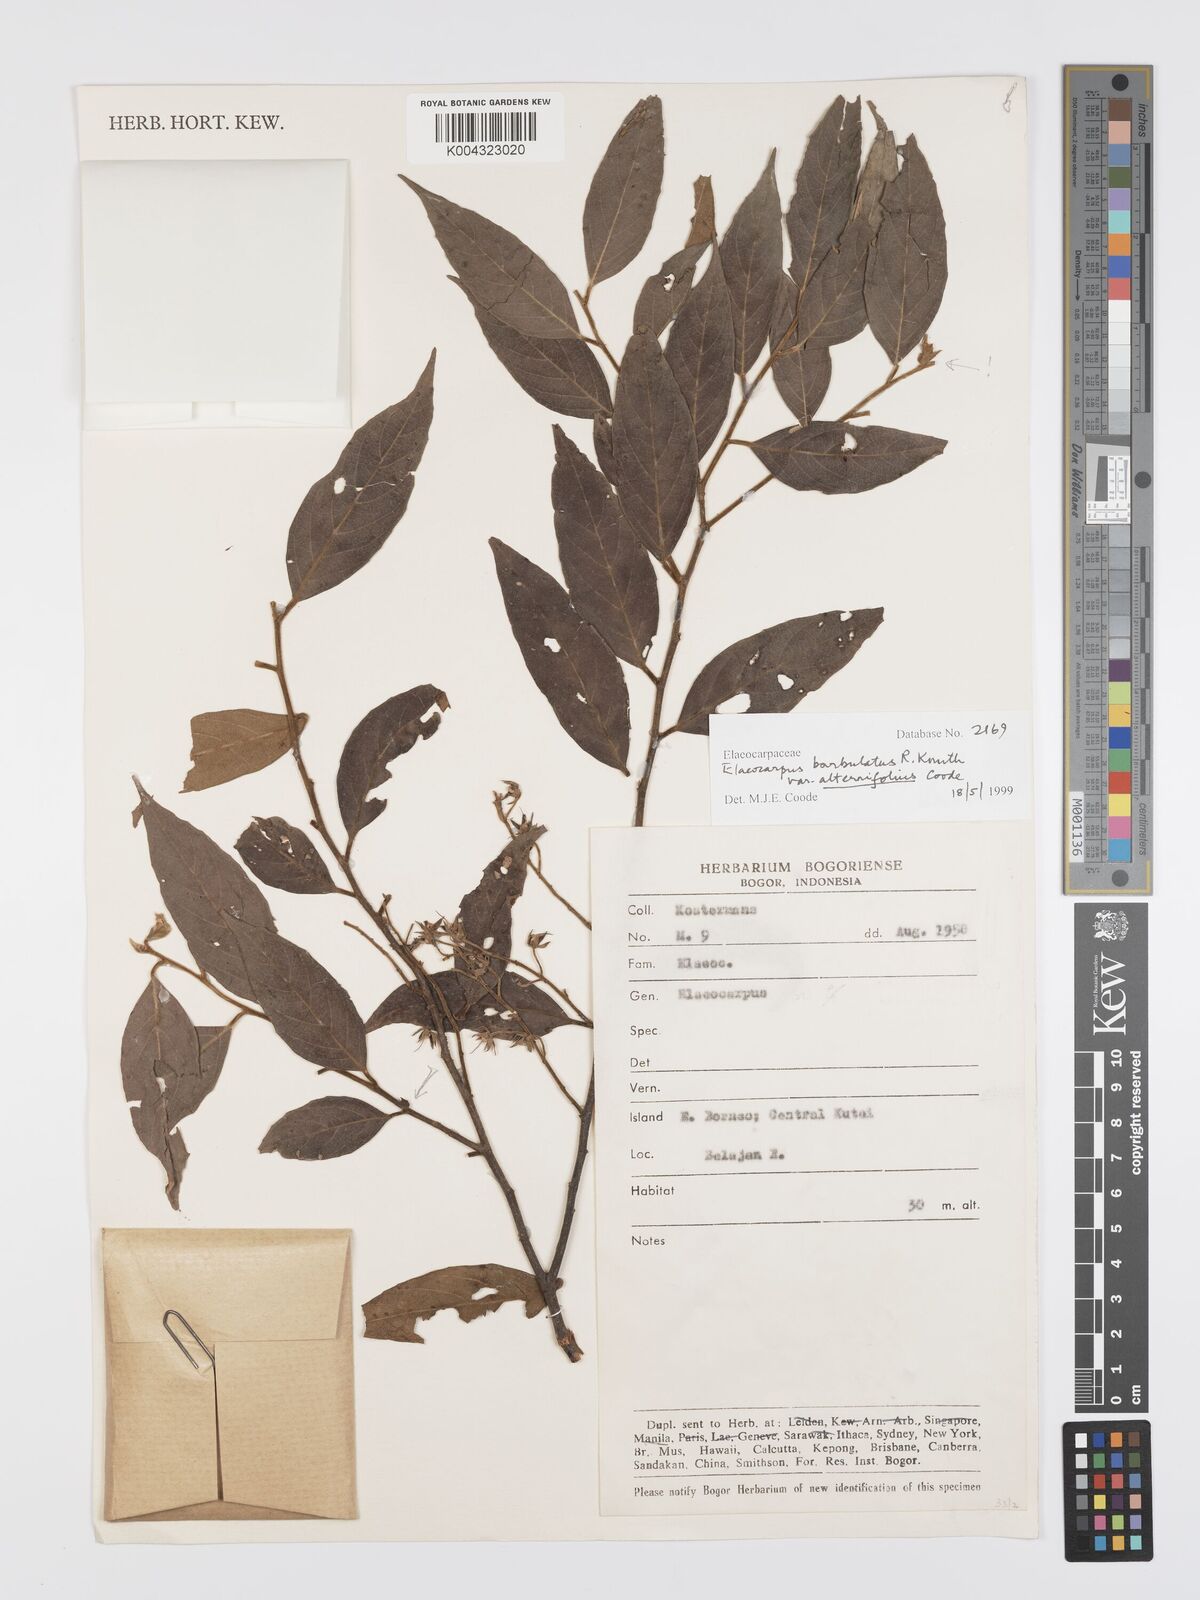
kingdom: Plantae
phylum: Tracheophyta
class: Magnoliopsida
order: Oxalidales
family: Elaeocarpaceae
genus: Elaeocarpus
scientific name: Elaeocarpus barbulatus
